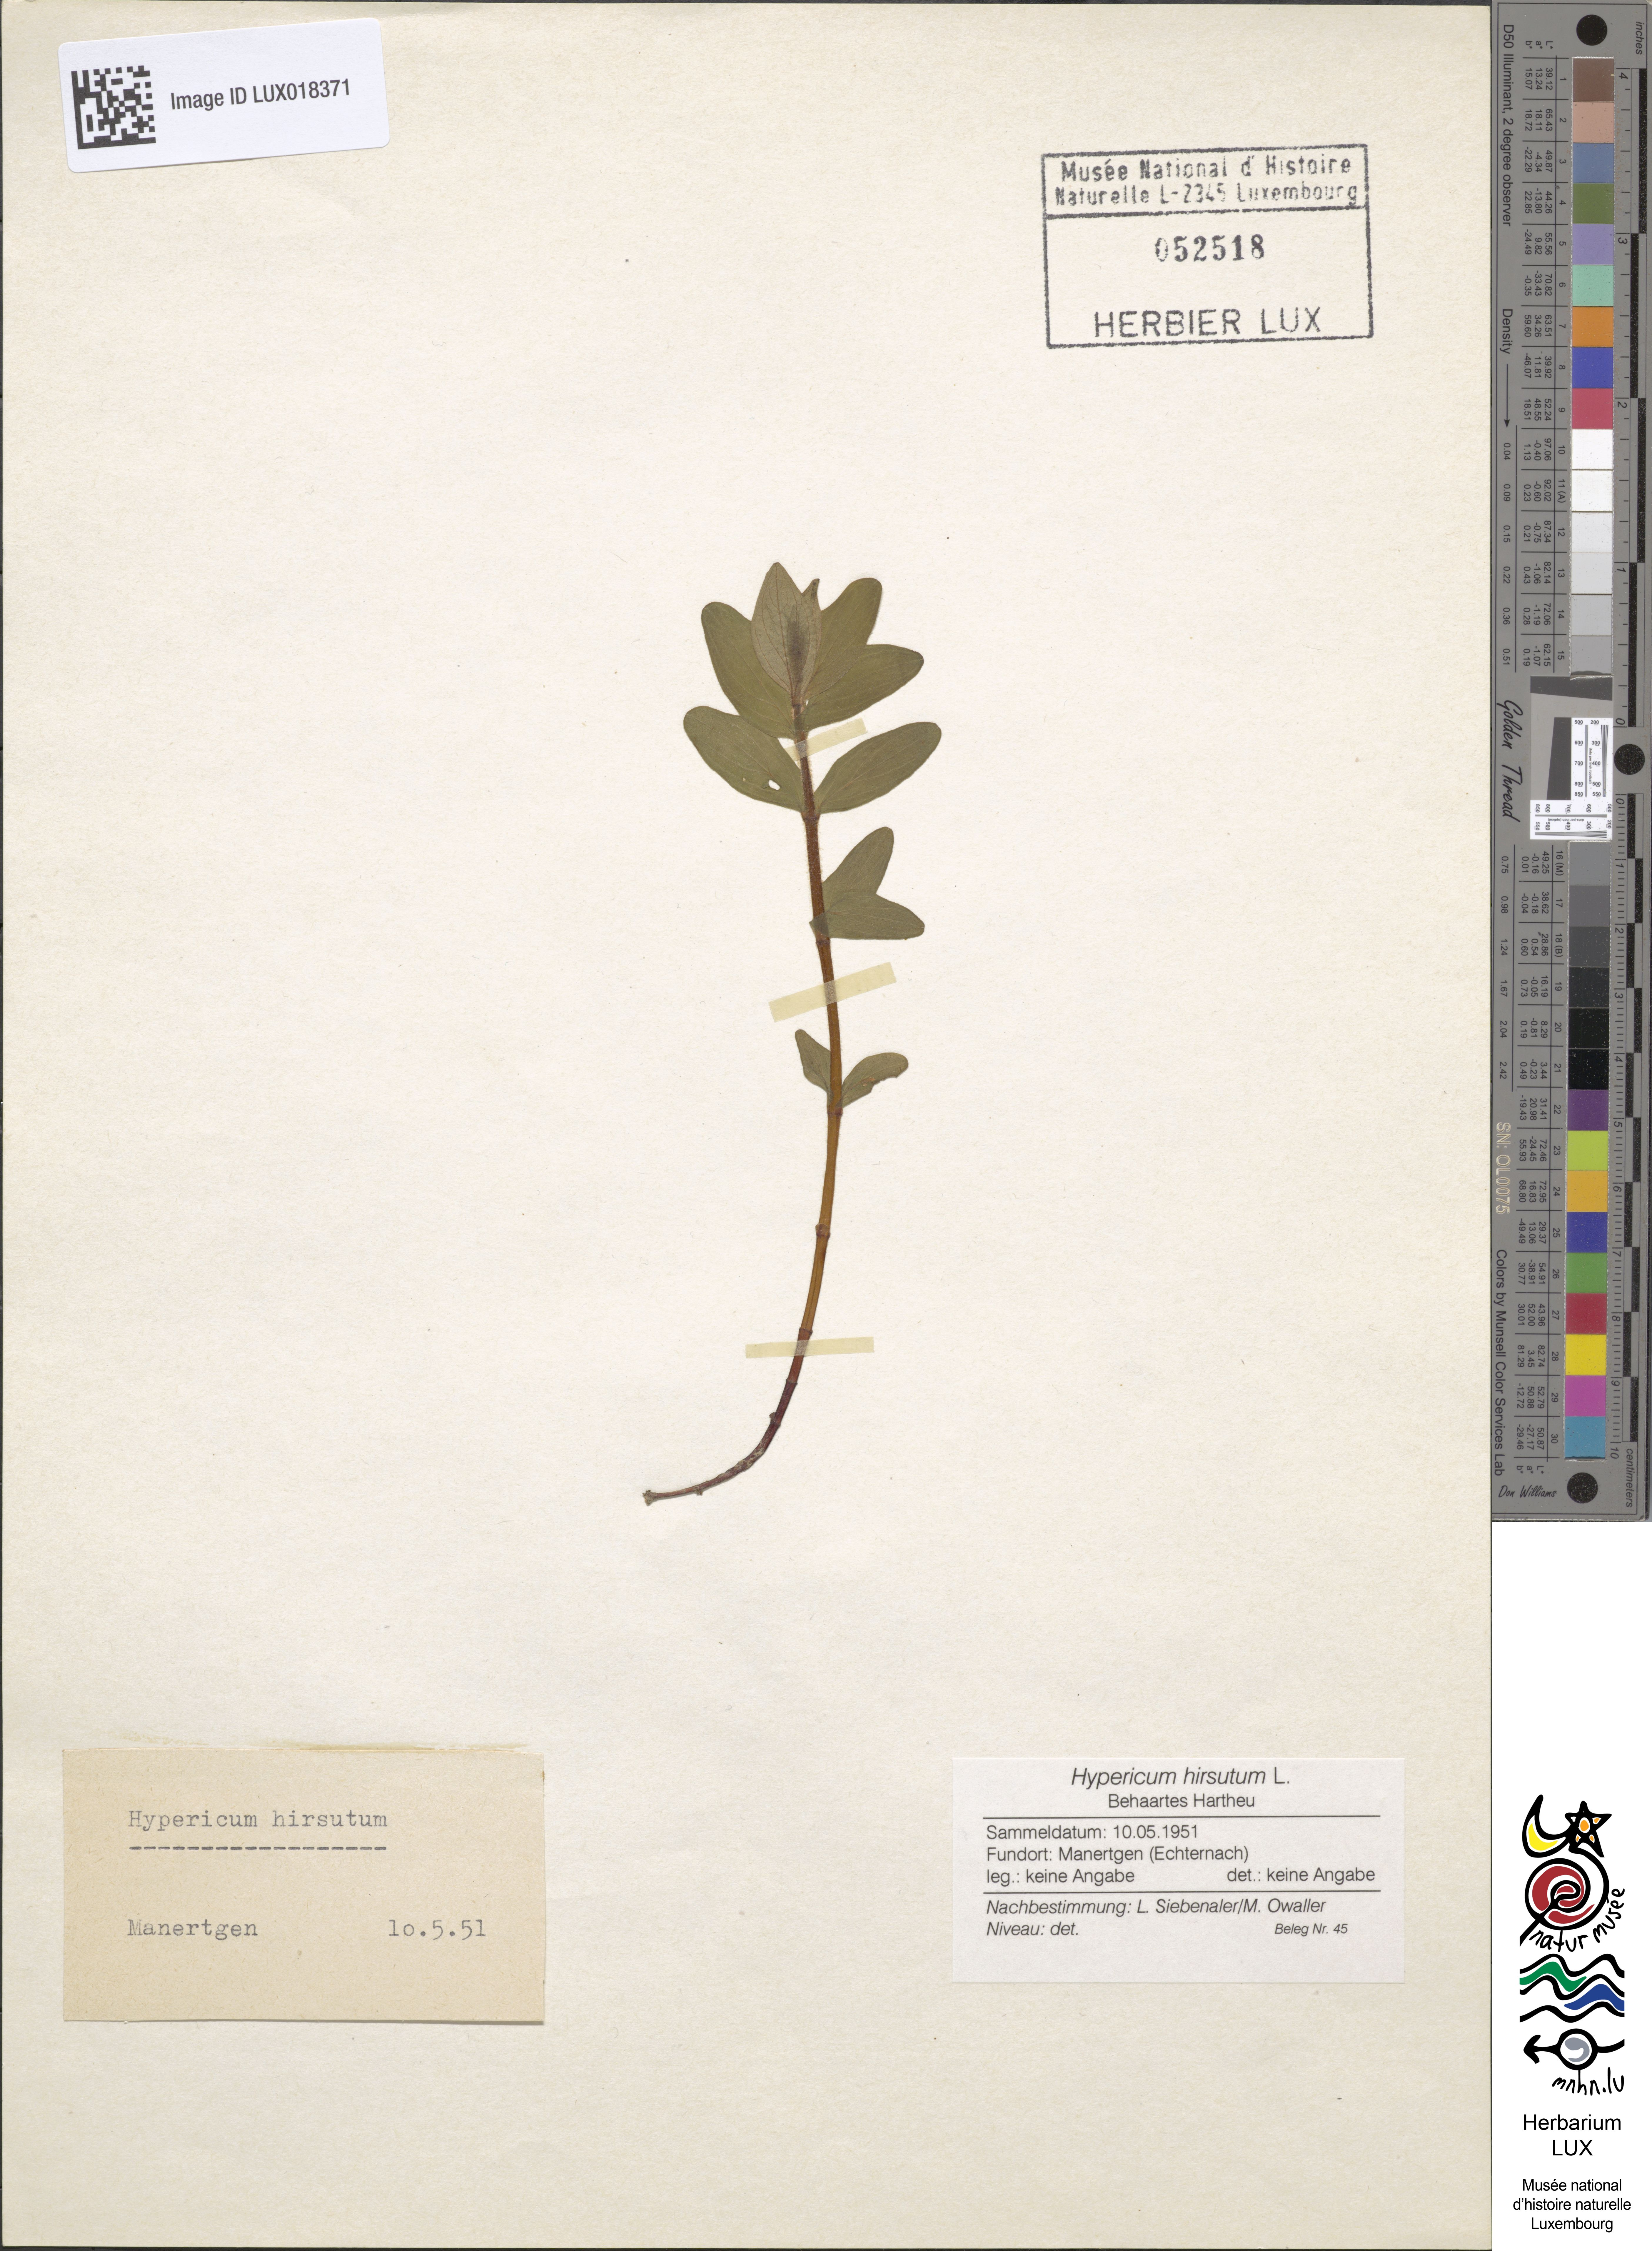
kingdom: Plantae
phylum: Tracheophyta
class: Magnoliopsida
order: Malpighiales
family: Hypericaceae
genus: Hypericum
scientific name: Hypericum hirsutum
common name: Hairy st. john's-wort
